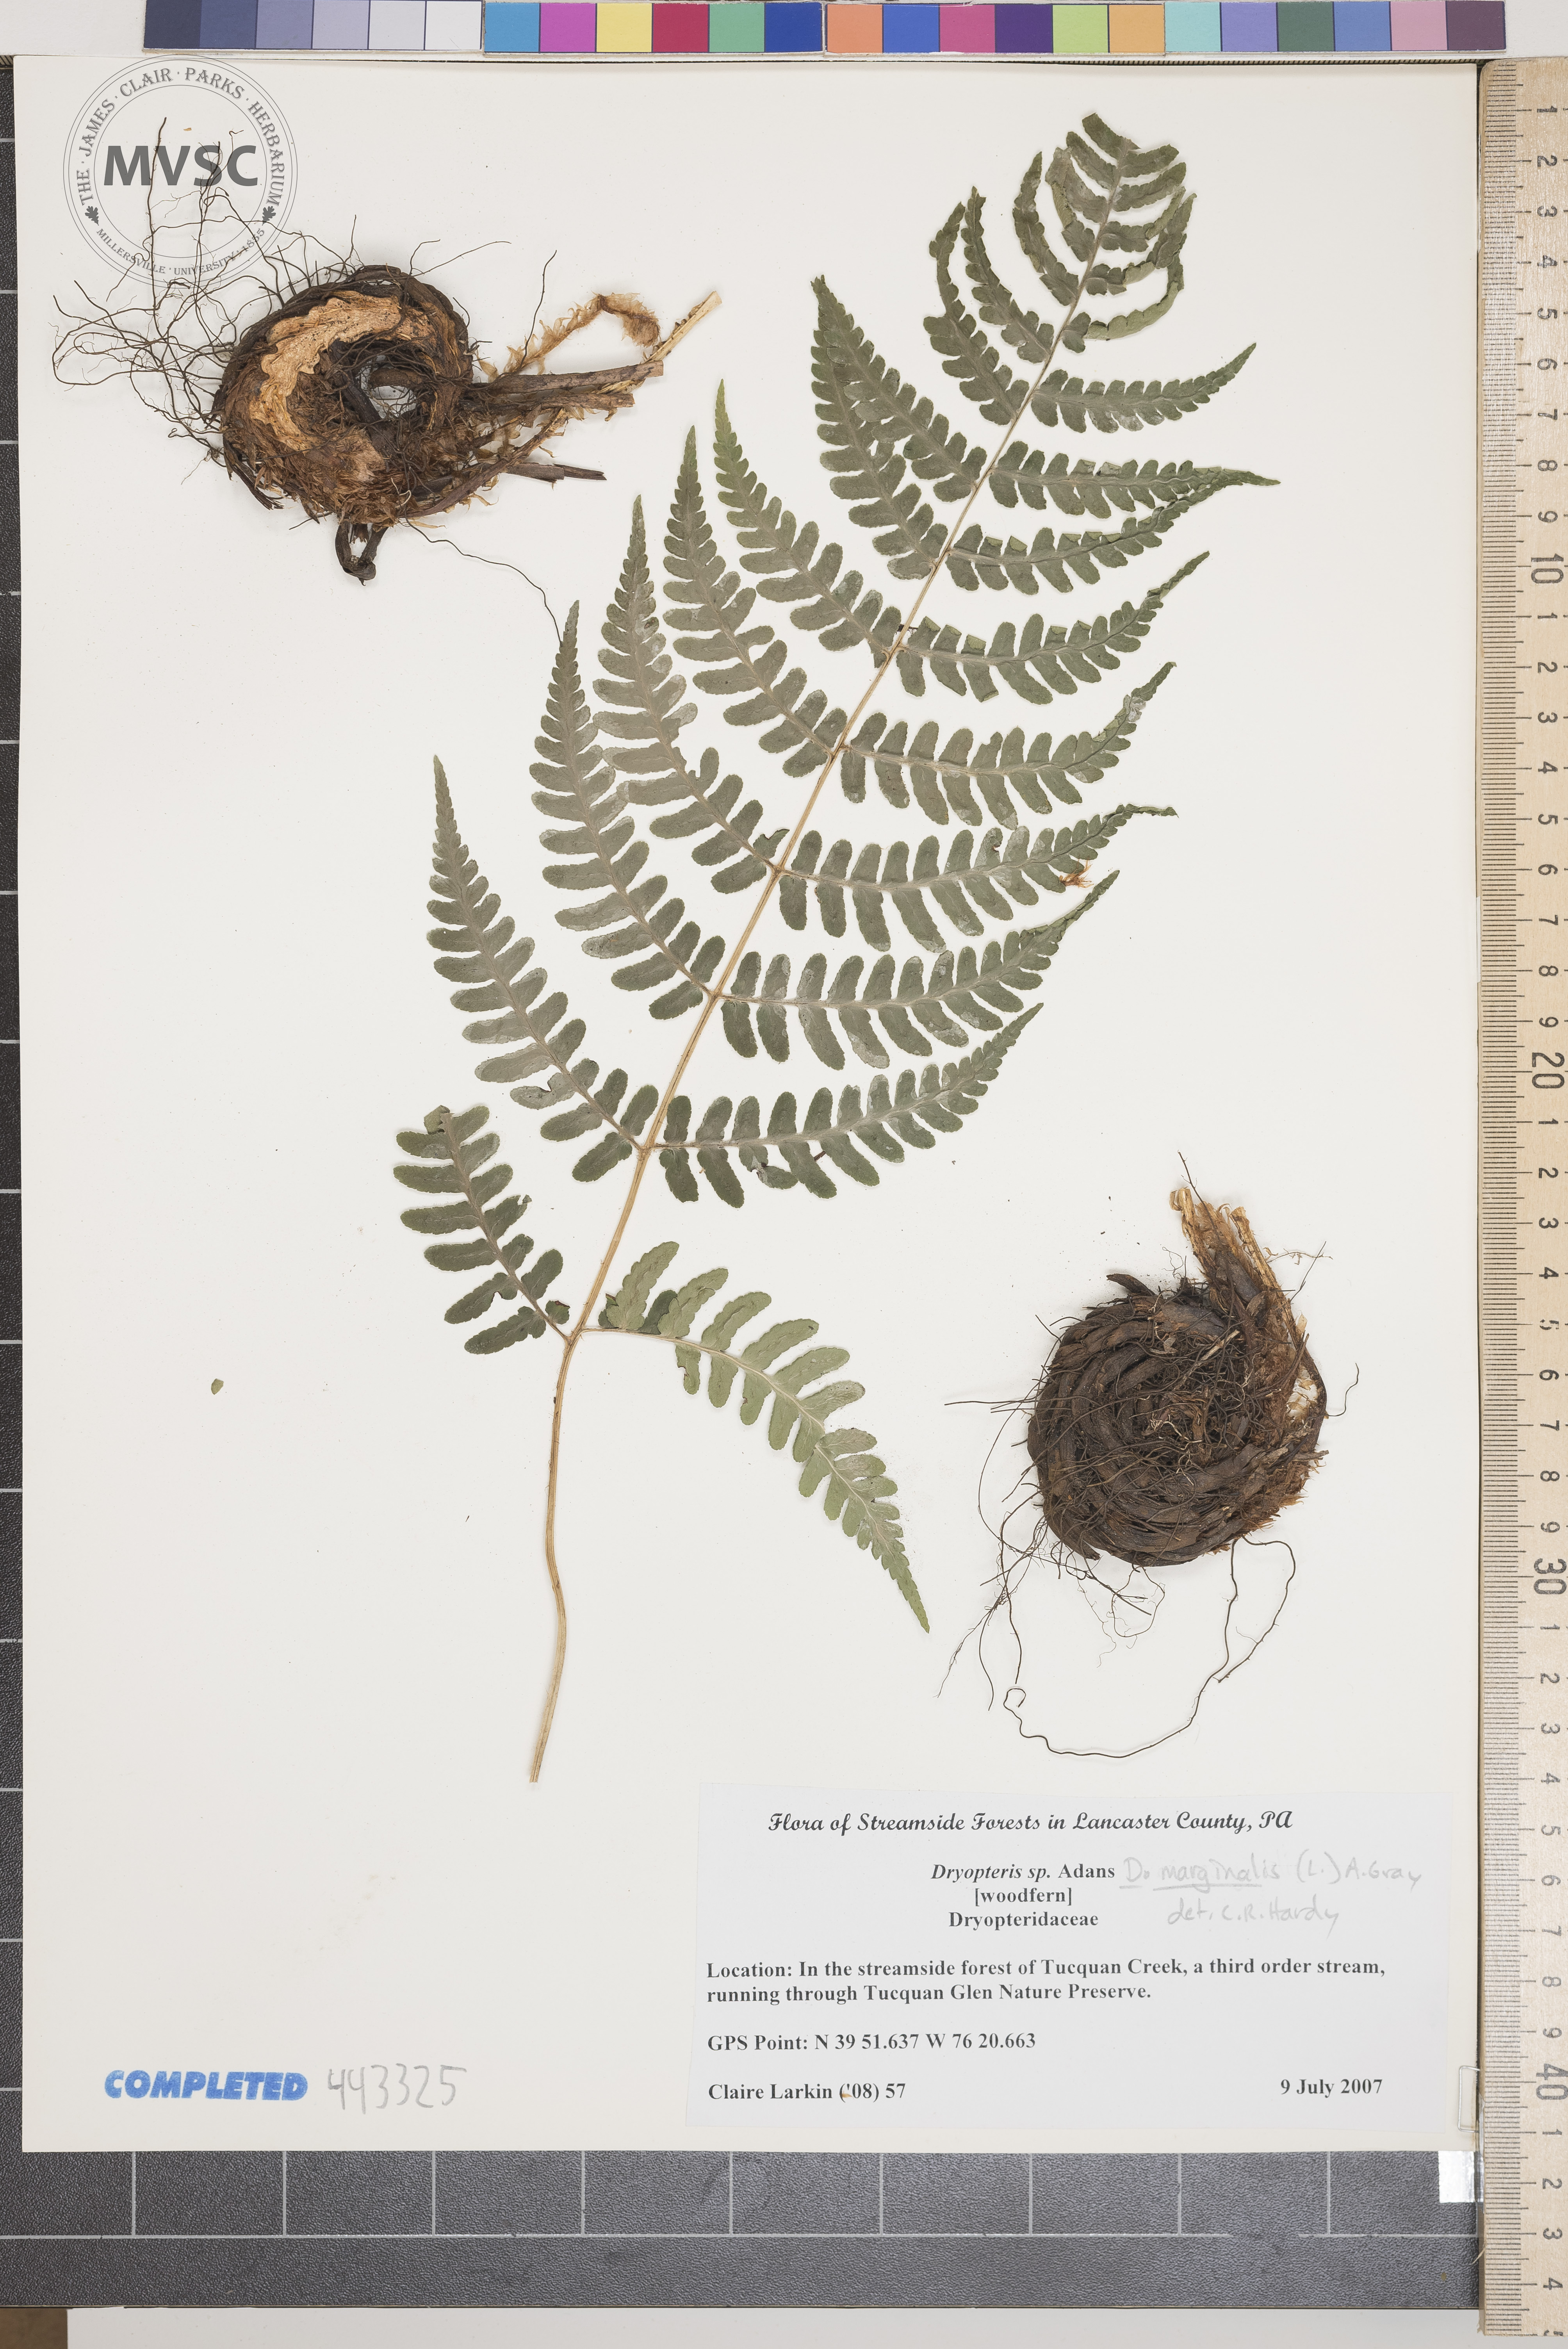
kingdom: Plantae
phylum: Tracheophyta
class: Polypodiopsida
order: Polypodiales
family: Dryopteridaceae
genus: Dryopteris
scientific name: Dryopteris marginalis
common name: Woodfern
